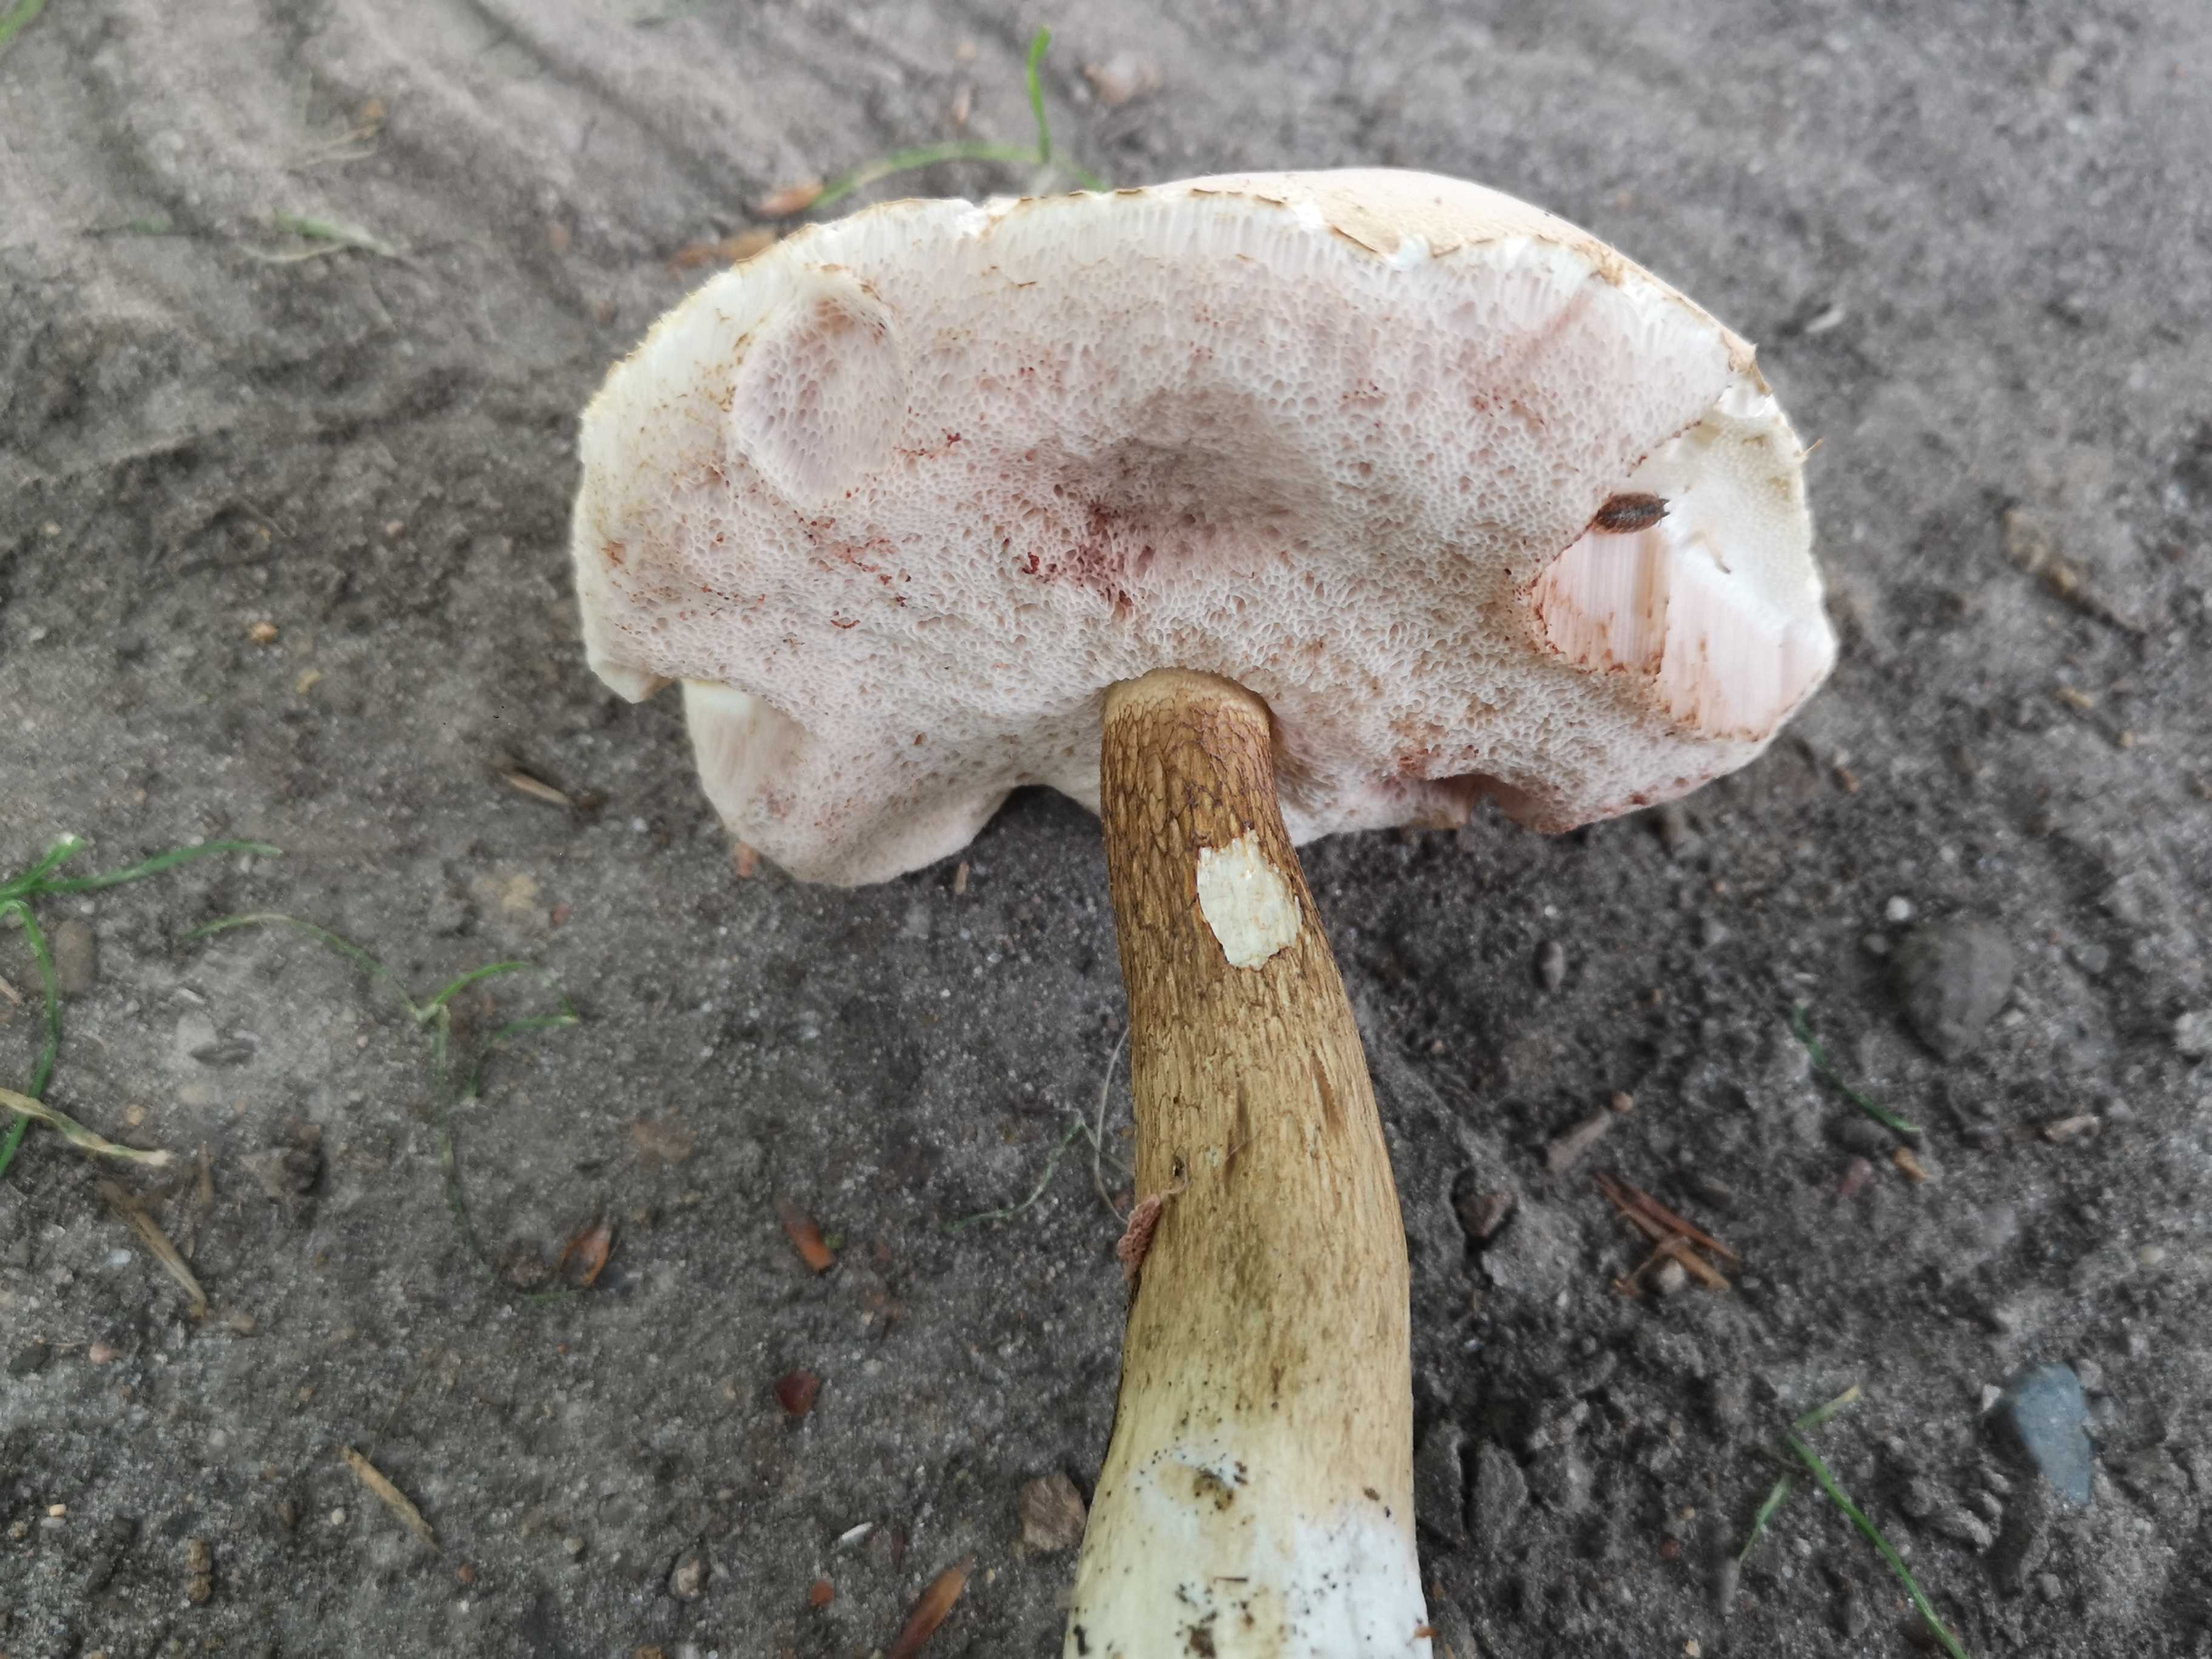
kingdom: Fungi
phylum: Basidiomycota
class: Agaricomycetes
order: Boletales
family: Boletaceae
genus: Tylopilus
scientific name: Tylopilus felleus
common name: galderørhat
